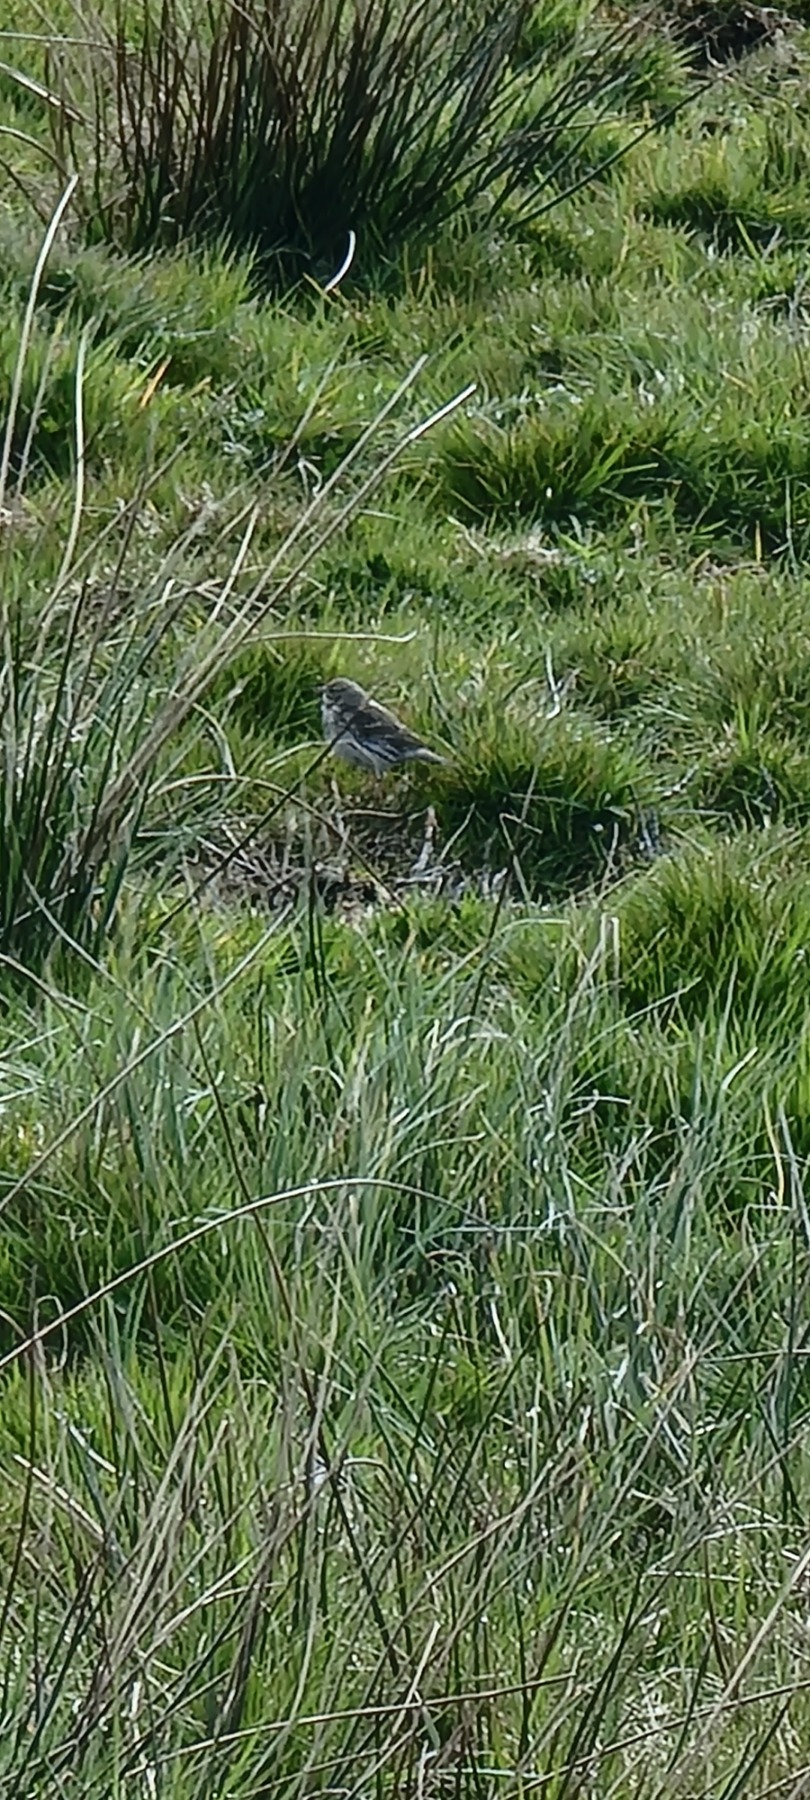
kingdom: Animalia
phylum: Chordata
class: Aves
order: Passeriformes
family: Motacillidae
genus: Anthus
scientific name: Anthus pratensis
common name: Engpiber
